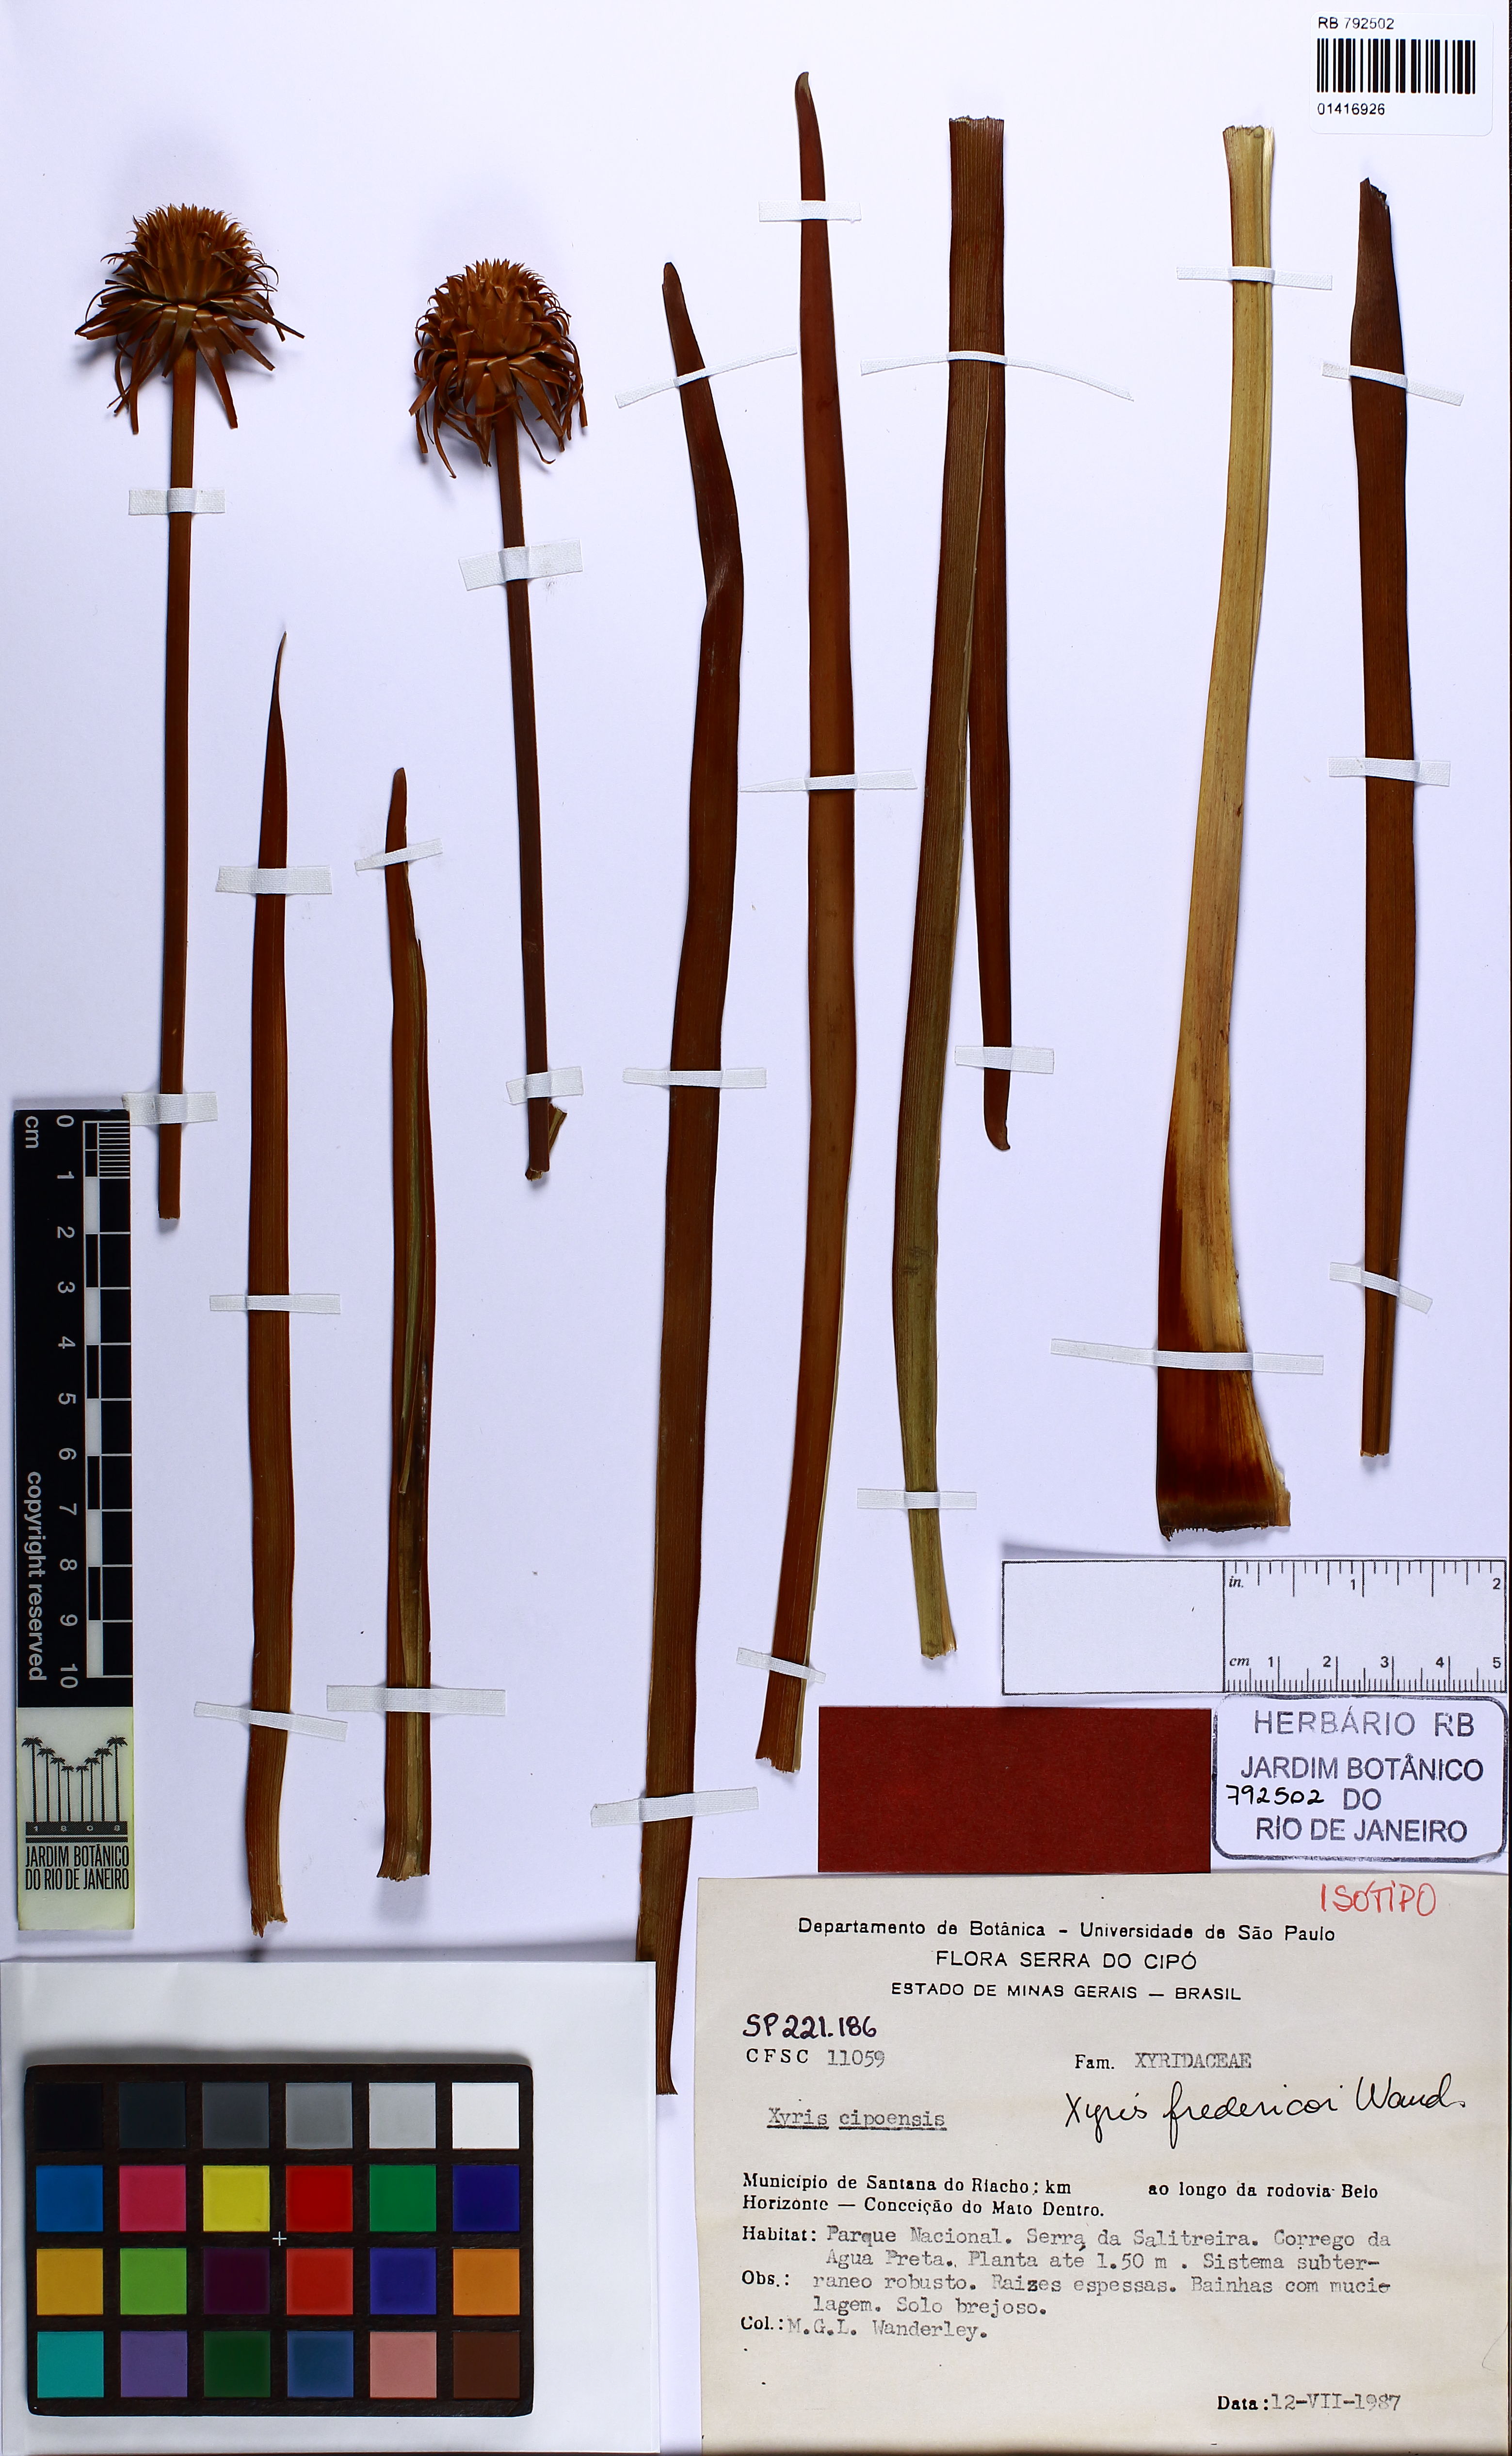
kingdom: Plantae
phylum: Tracheophyta
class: Liliopsida
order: Poales
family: Xyridaceae
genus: Xyris
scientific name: Xyris fredericoi
